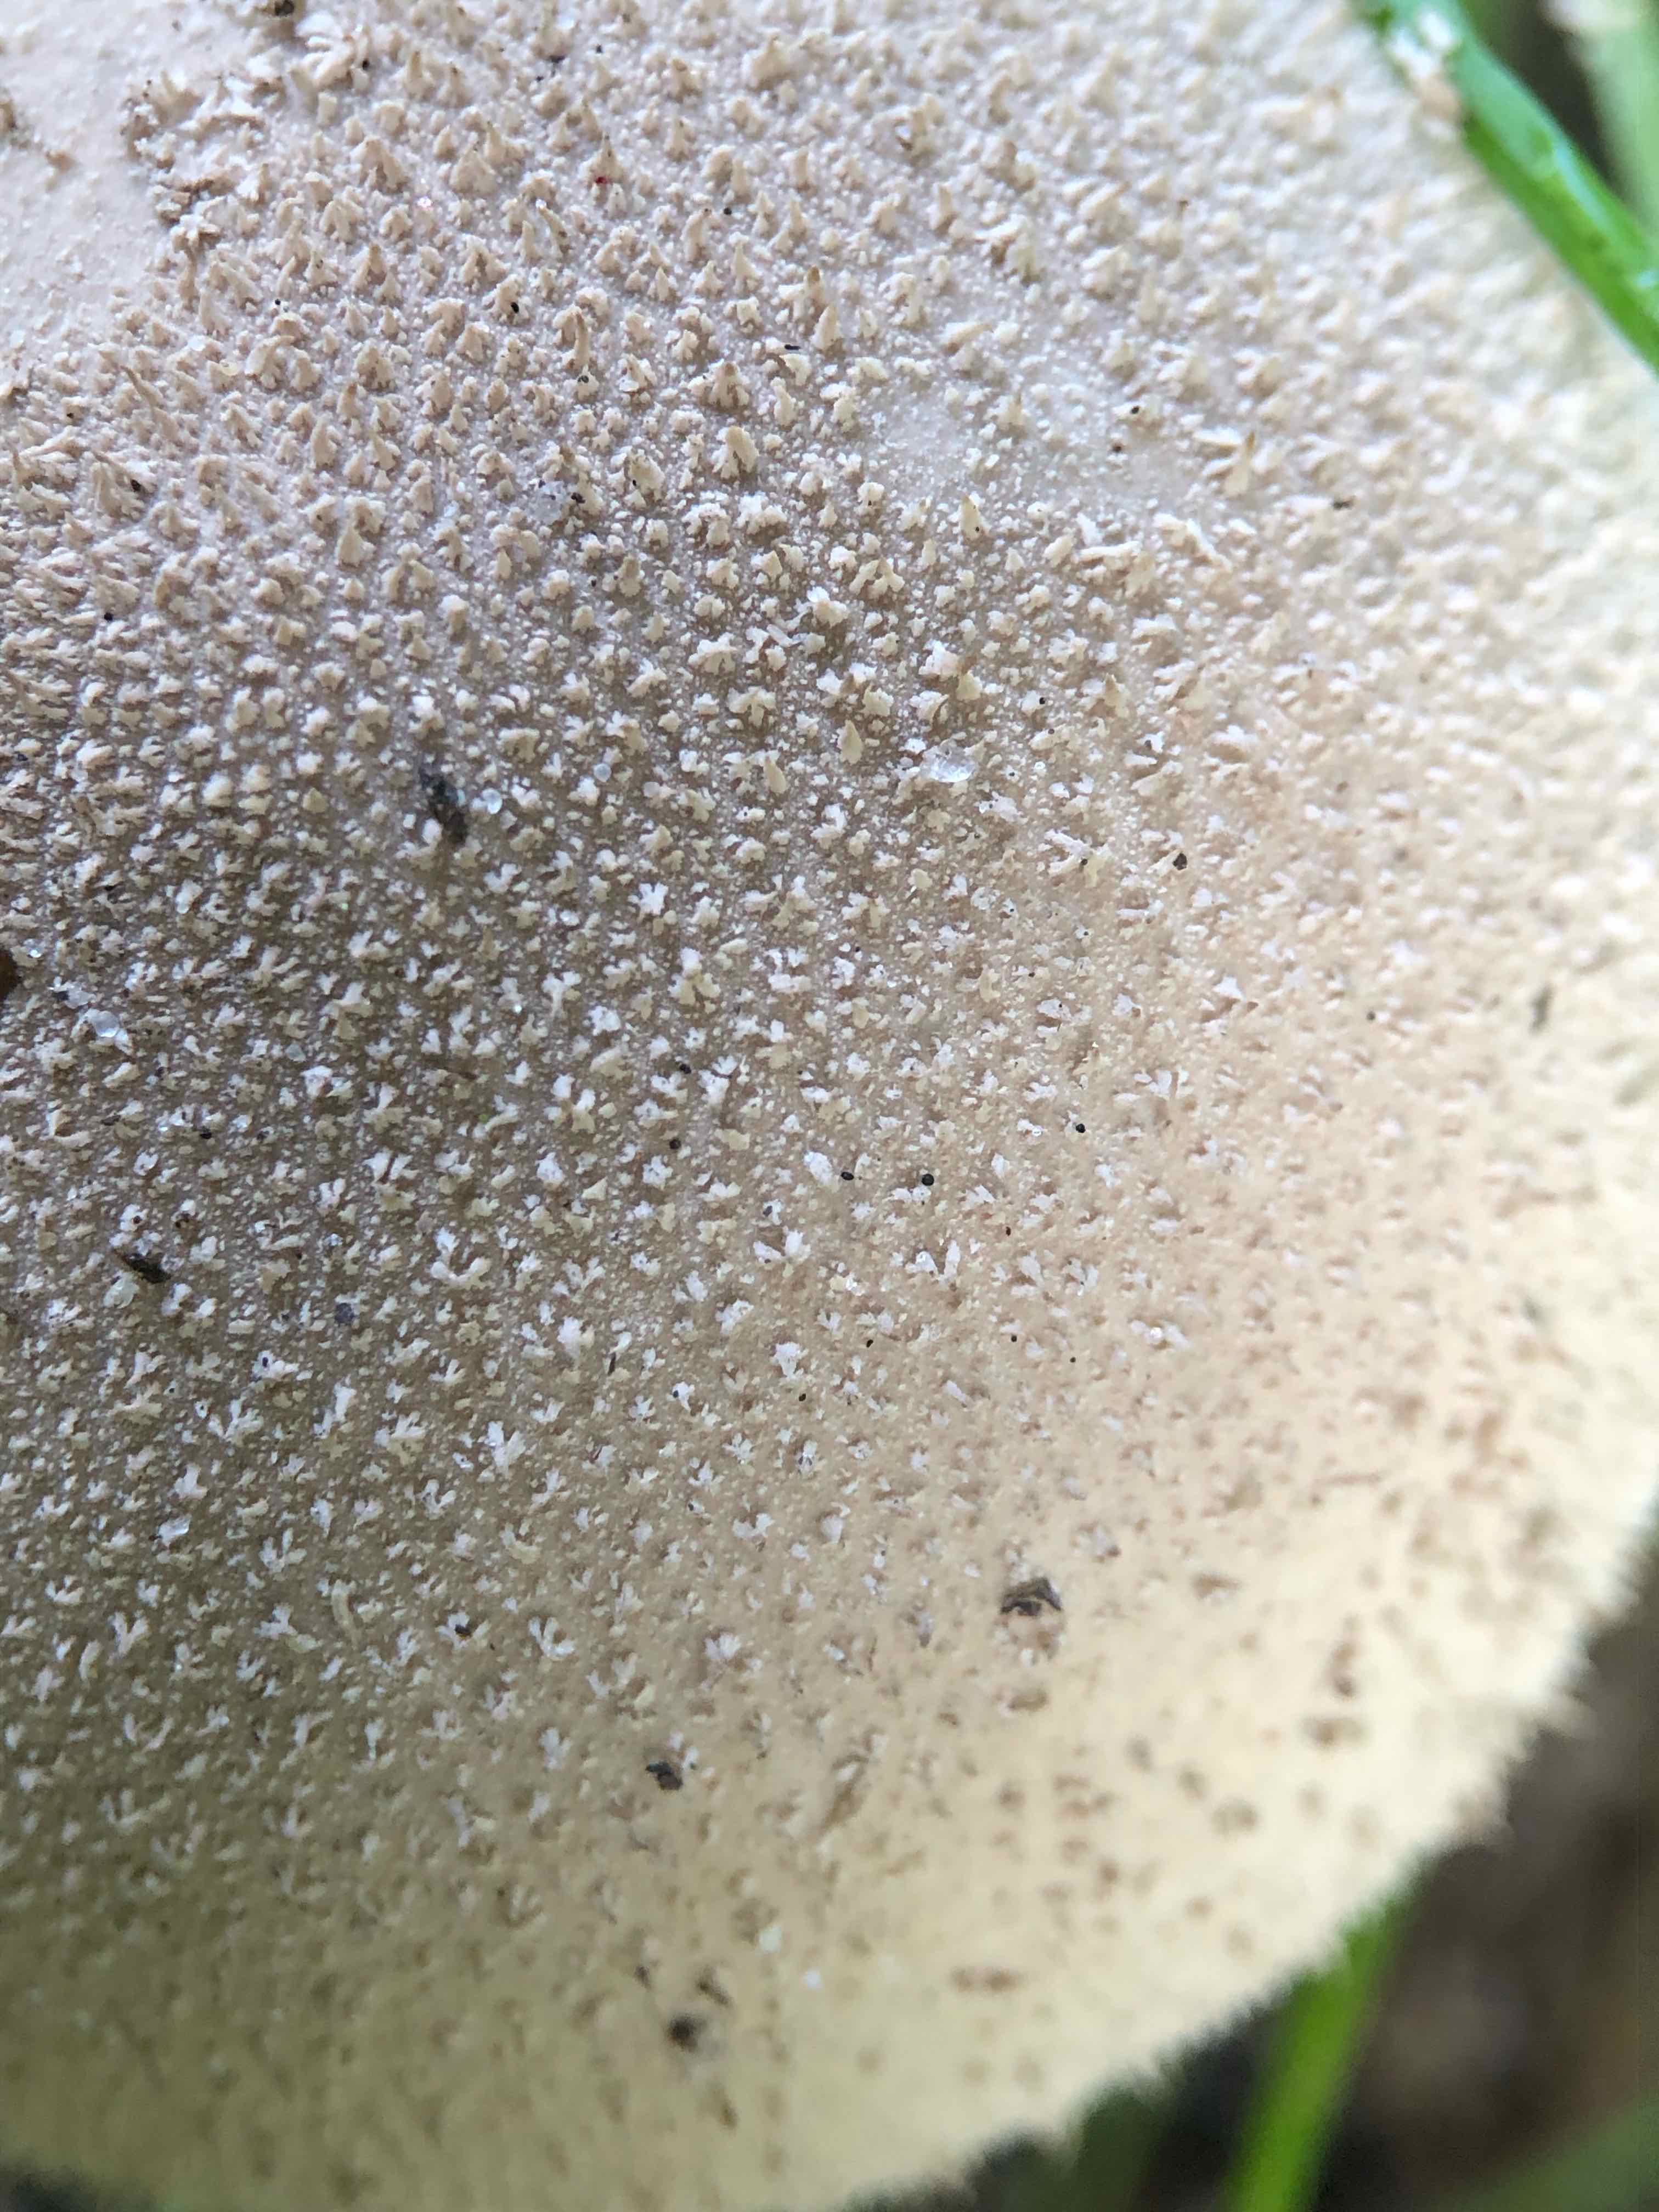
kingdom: Fungi
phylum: Basidiomycota
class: Agaricomycetes
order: Agaricales
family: Lycoperdaceae
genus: Lycoperdon
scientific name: Lycoperdon excipuliforme
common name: højstokket støvbold
